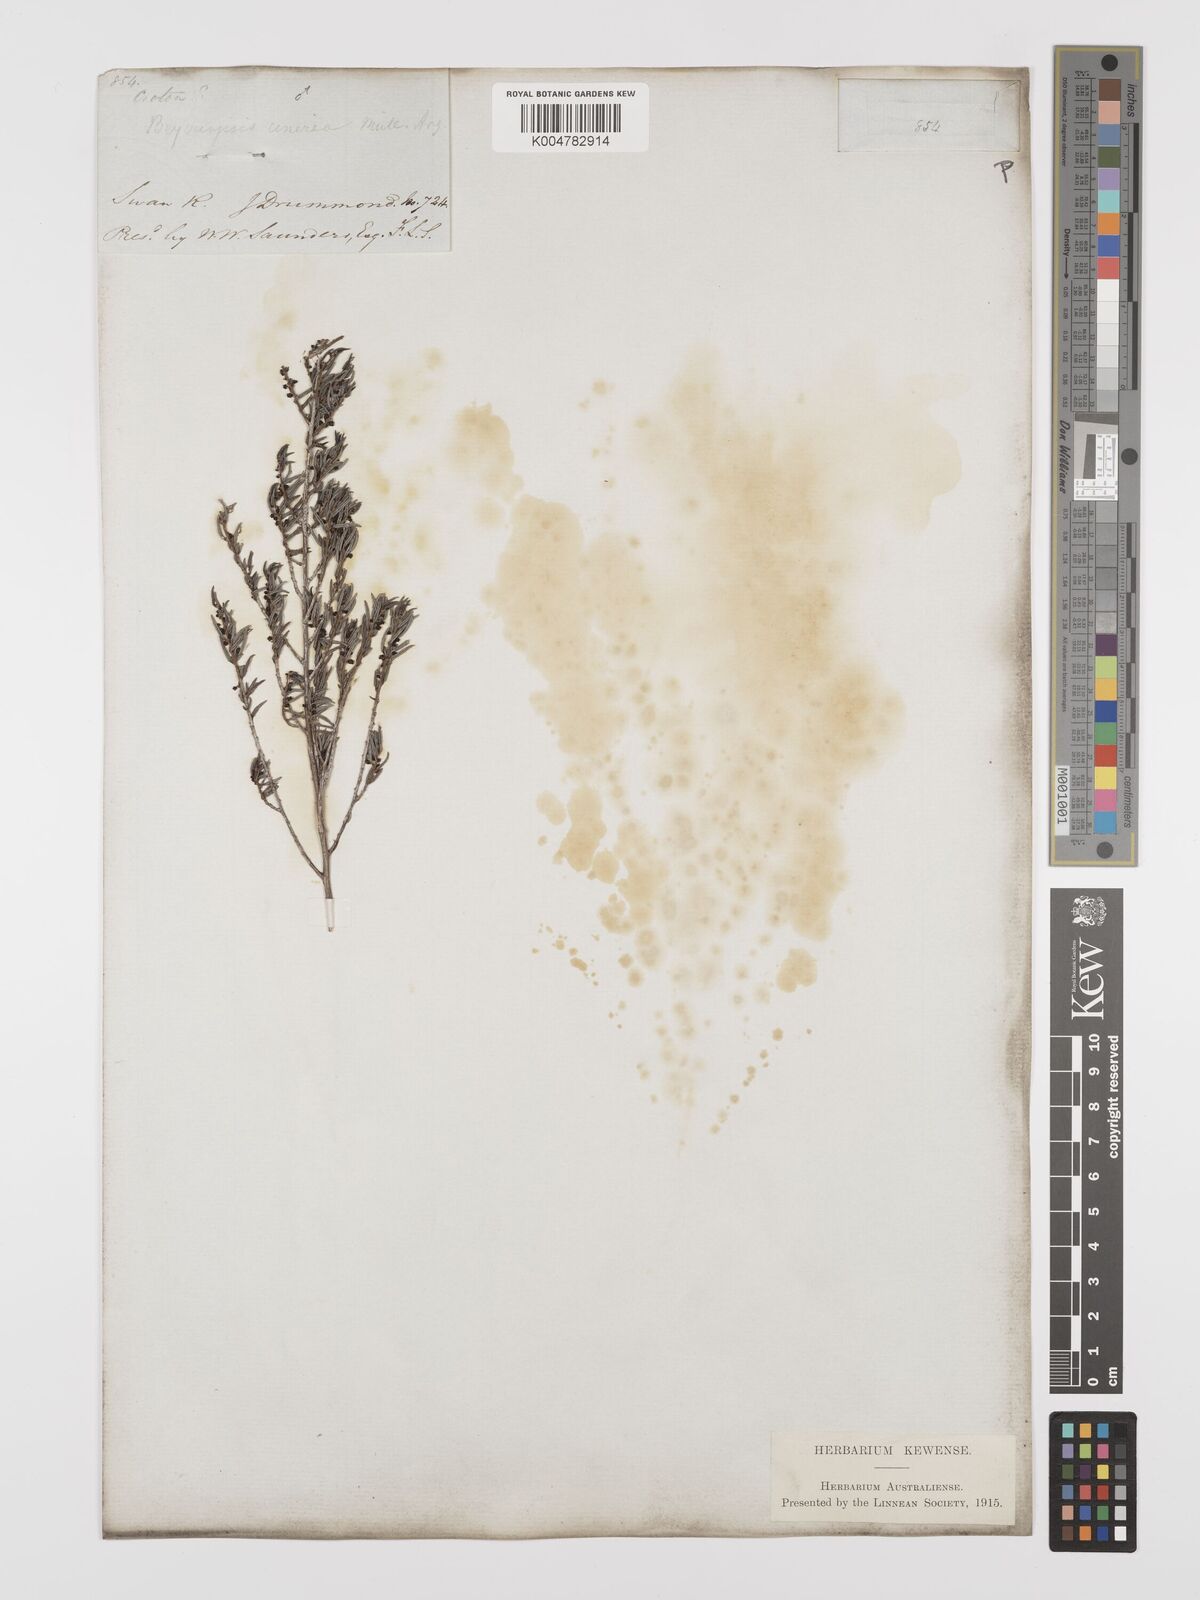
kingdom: Plantae
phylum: Tracheophyta
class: Magnoliopsida
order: Malpighiales
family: Euphorbiaceae
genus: Beyeria
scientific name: Beyeria cinerea
